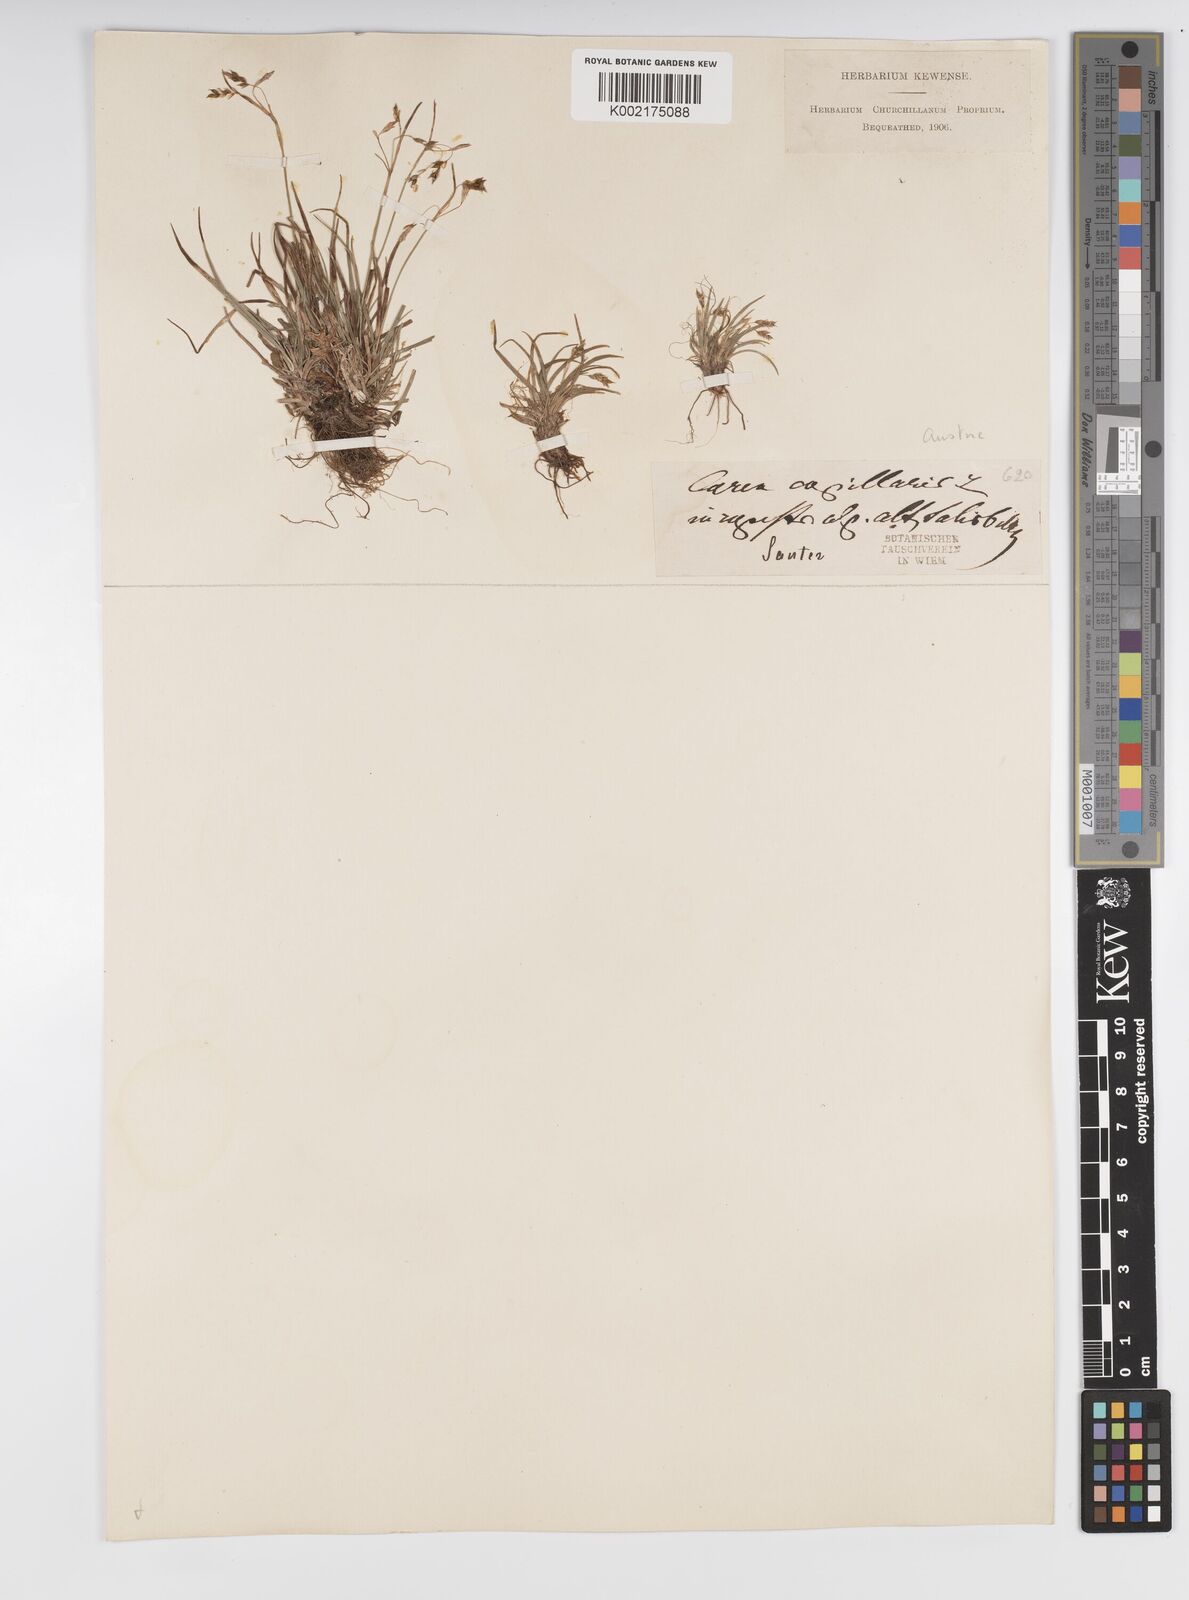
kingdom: Plantae
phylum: Tracheophyta
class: Liliopsida
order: Poales
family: Cyperaceae
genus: Carex
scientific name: Carex capillaris
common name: Hair sedge
